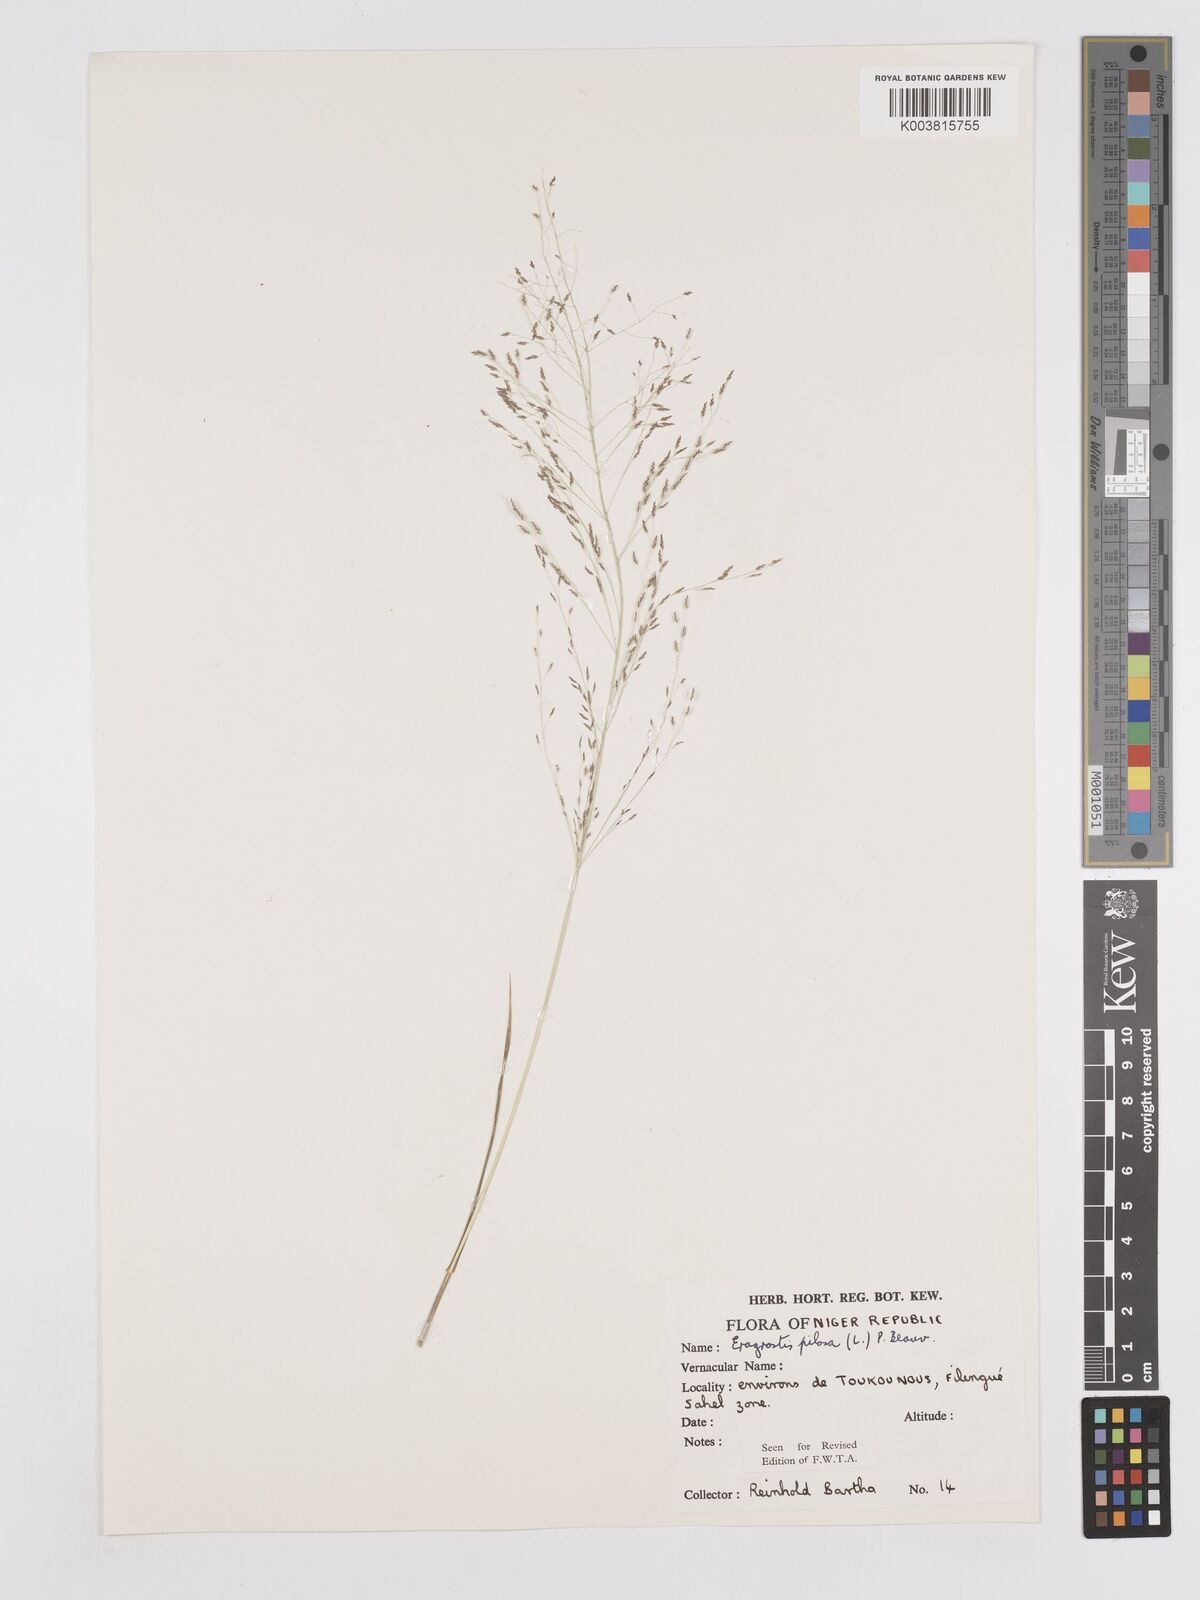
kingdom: Plantae
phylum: Tracheophyta
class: Liliopsida
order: Poales
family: Poaceae
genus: Eragrostis
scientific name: Eragrostis pilosa
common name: Indian lovegrass
